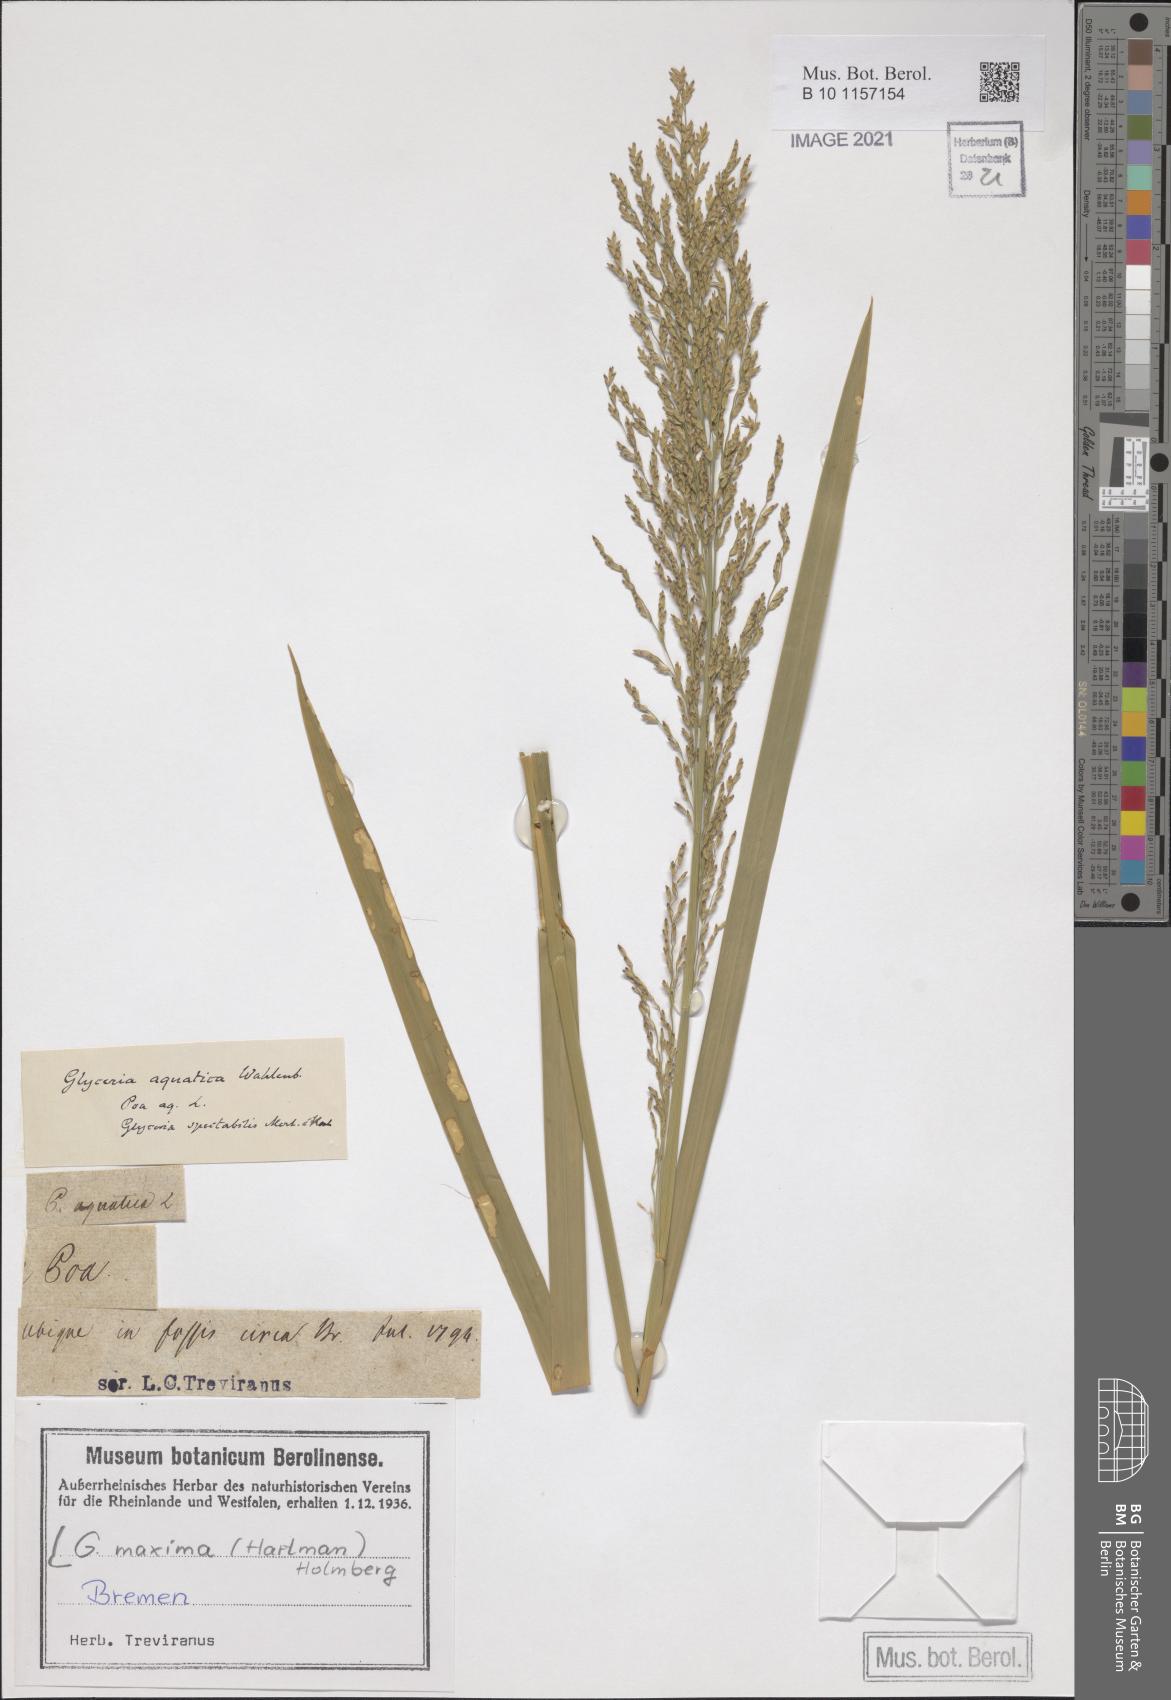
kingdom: Plantae
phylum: Tracheophyta
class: Liliopsida
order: Poales
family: Poaceae
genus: Glyceria
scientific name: Glyceria maxima
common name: Reed mannagrass
